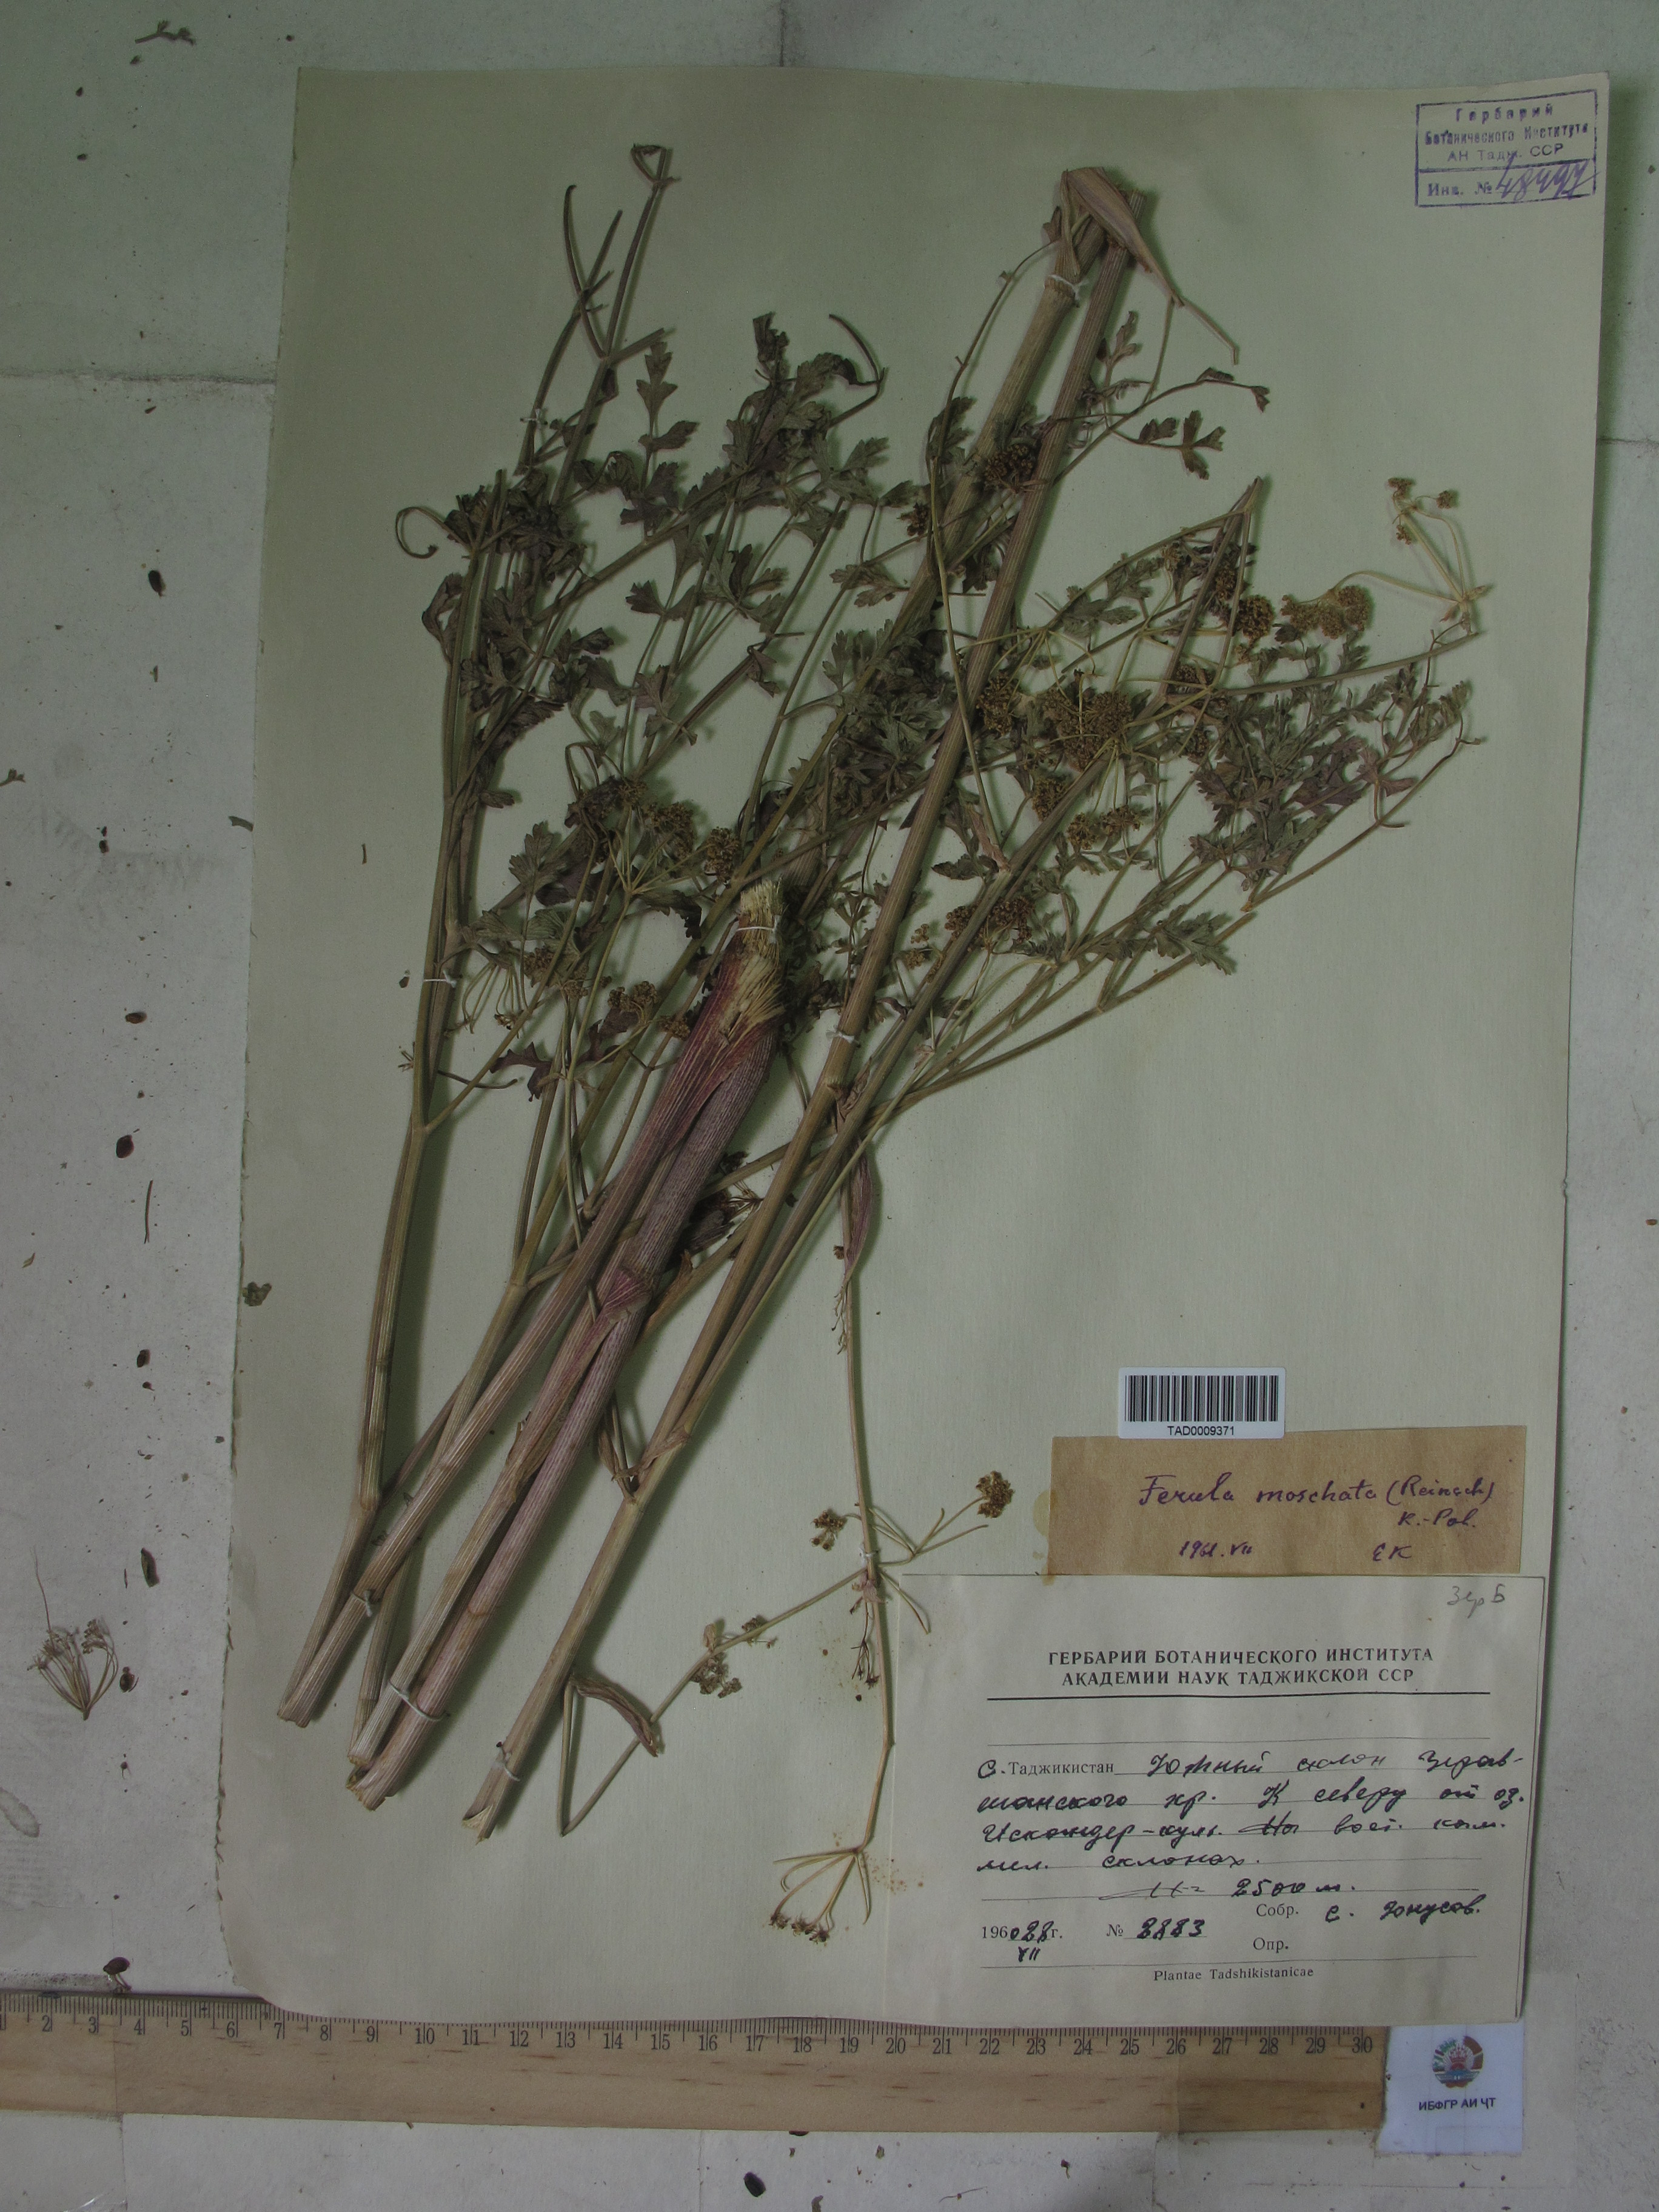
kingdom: Plantae
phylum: Tracheophyta
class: Magnoliopsida
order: Apiales
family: Apiaceae
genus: Ferula
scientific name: Ferula moschata
